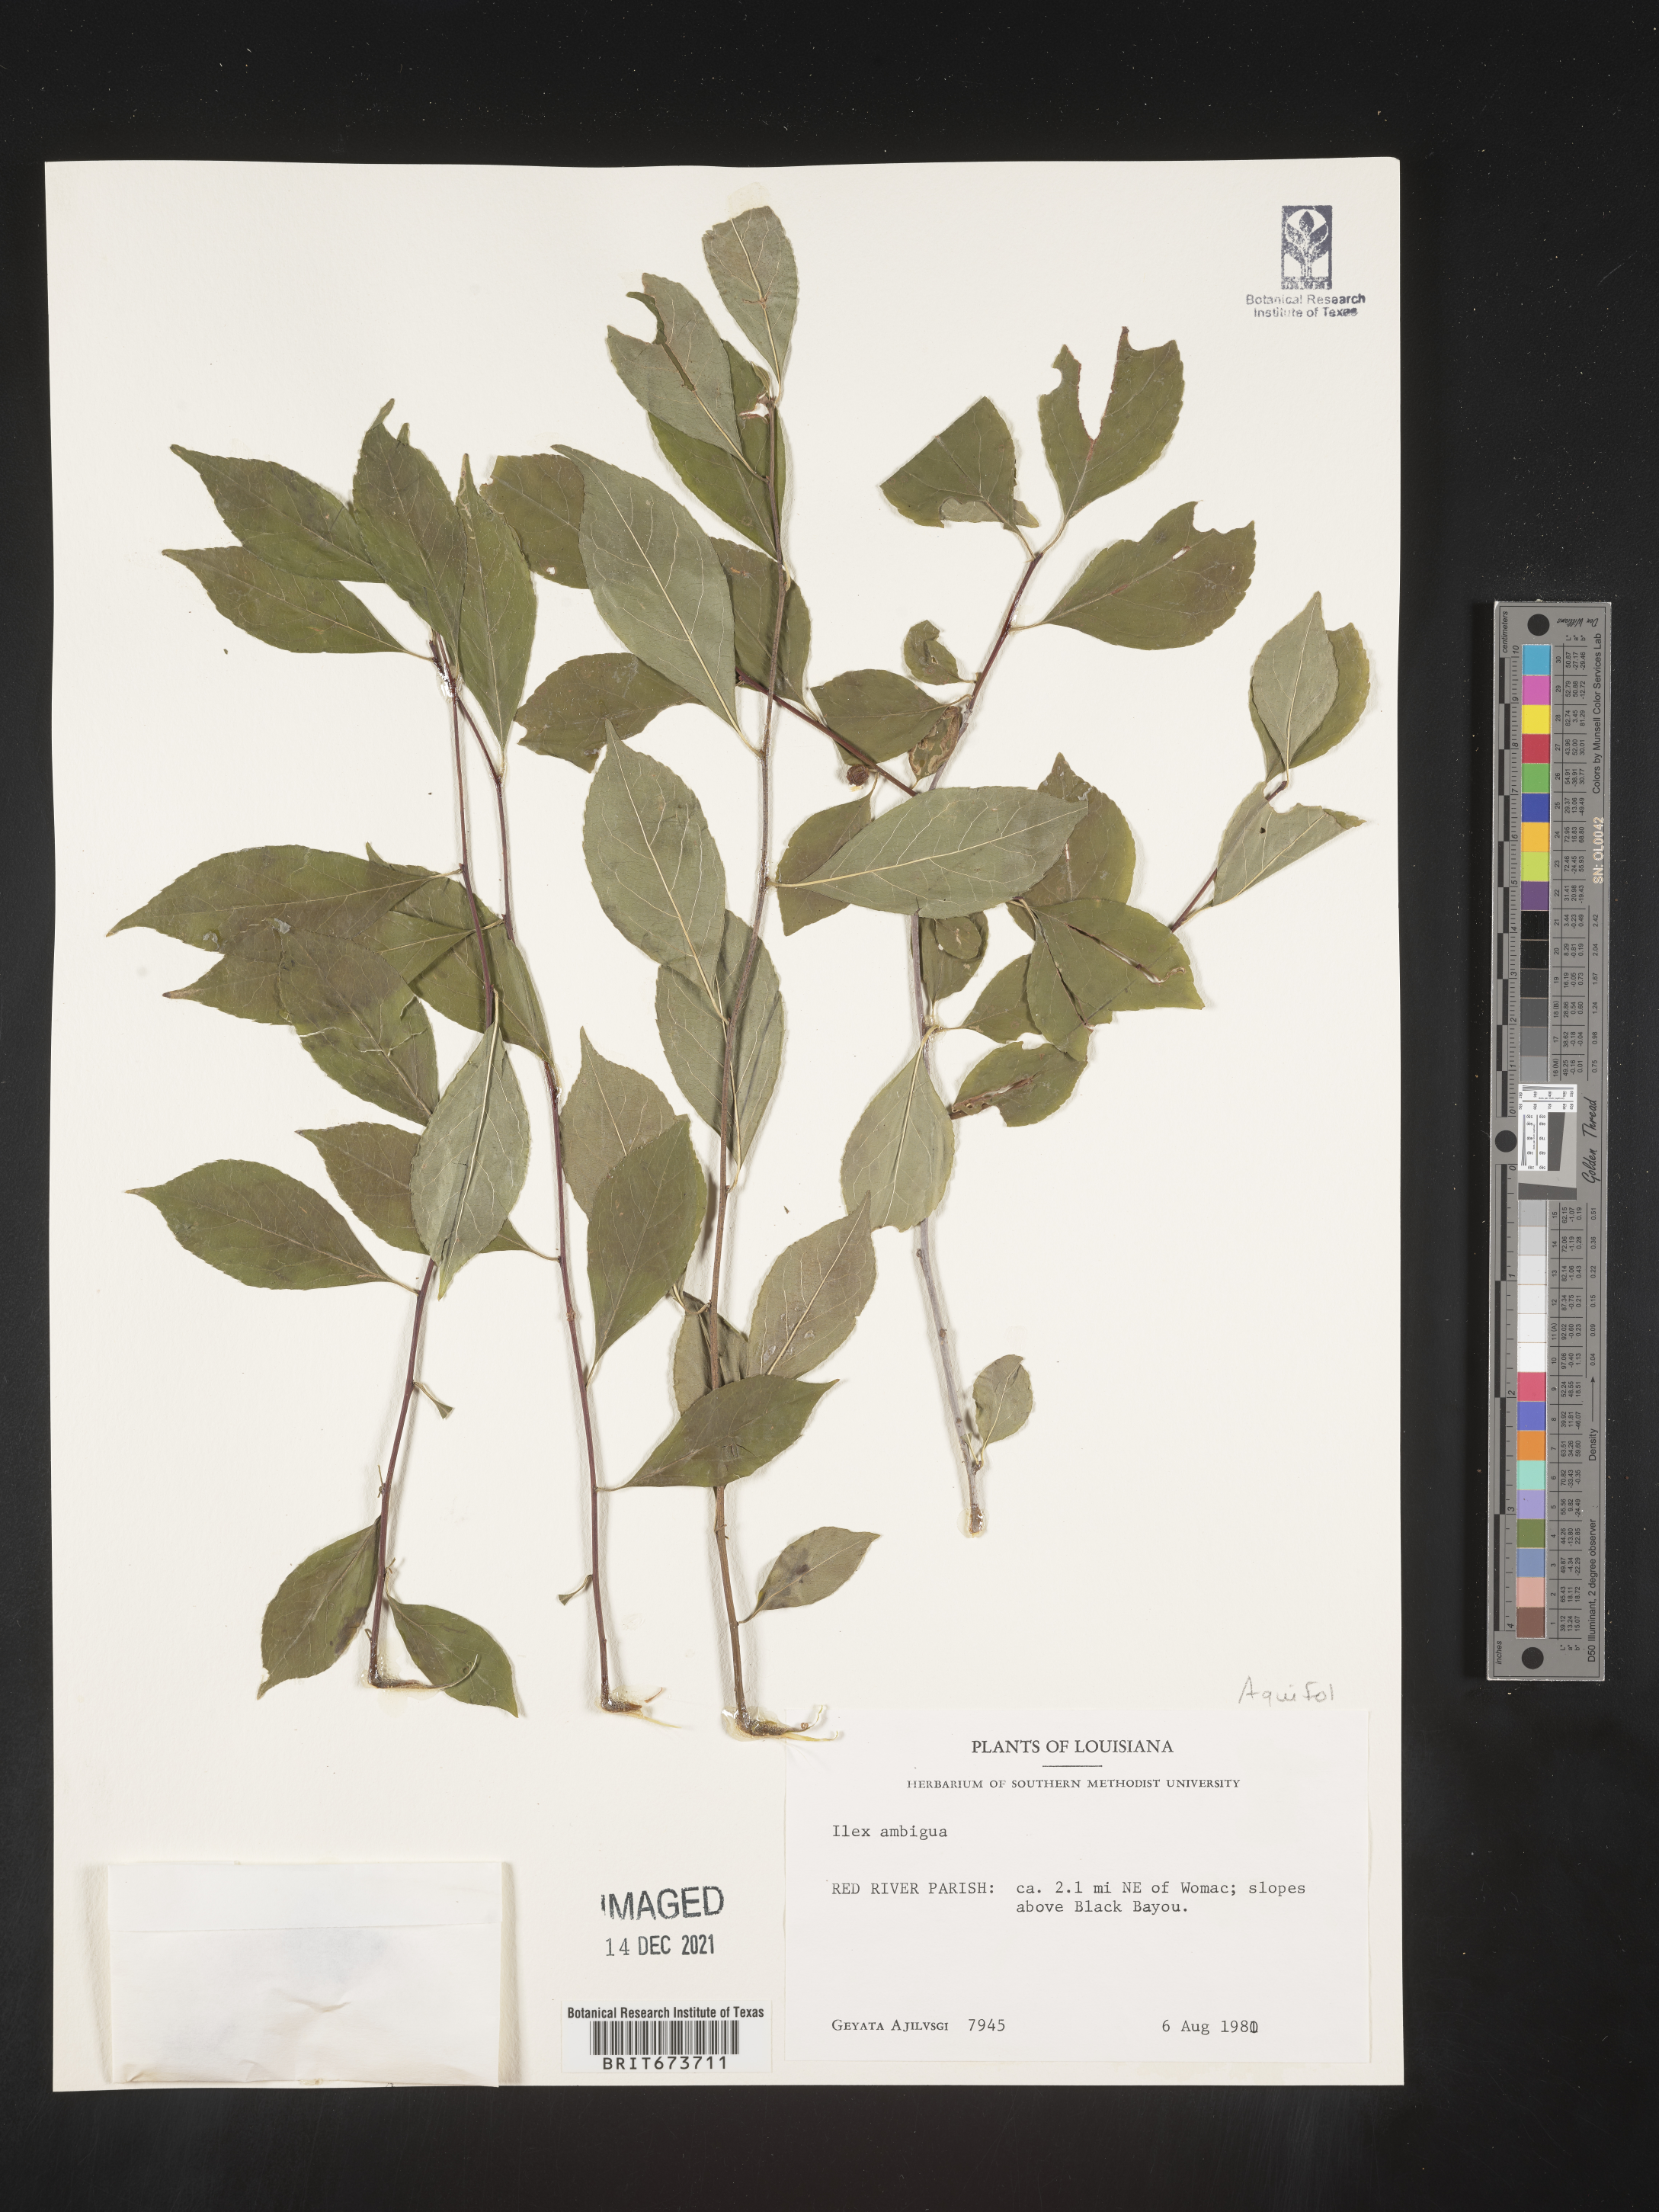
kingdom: Plantae
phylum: Tracheophyta
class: Magnoliopsida
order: Aquifoliales
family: Aquifoliaceae
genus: Ilex
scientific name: Ilex ambigua
